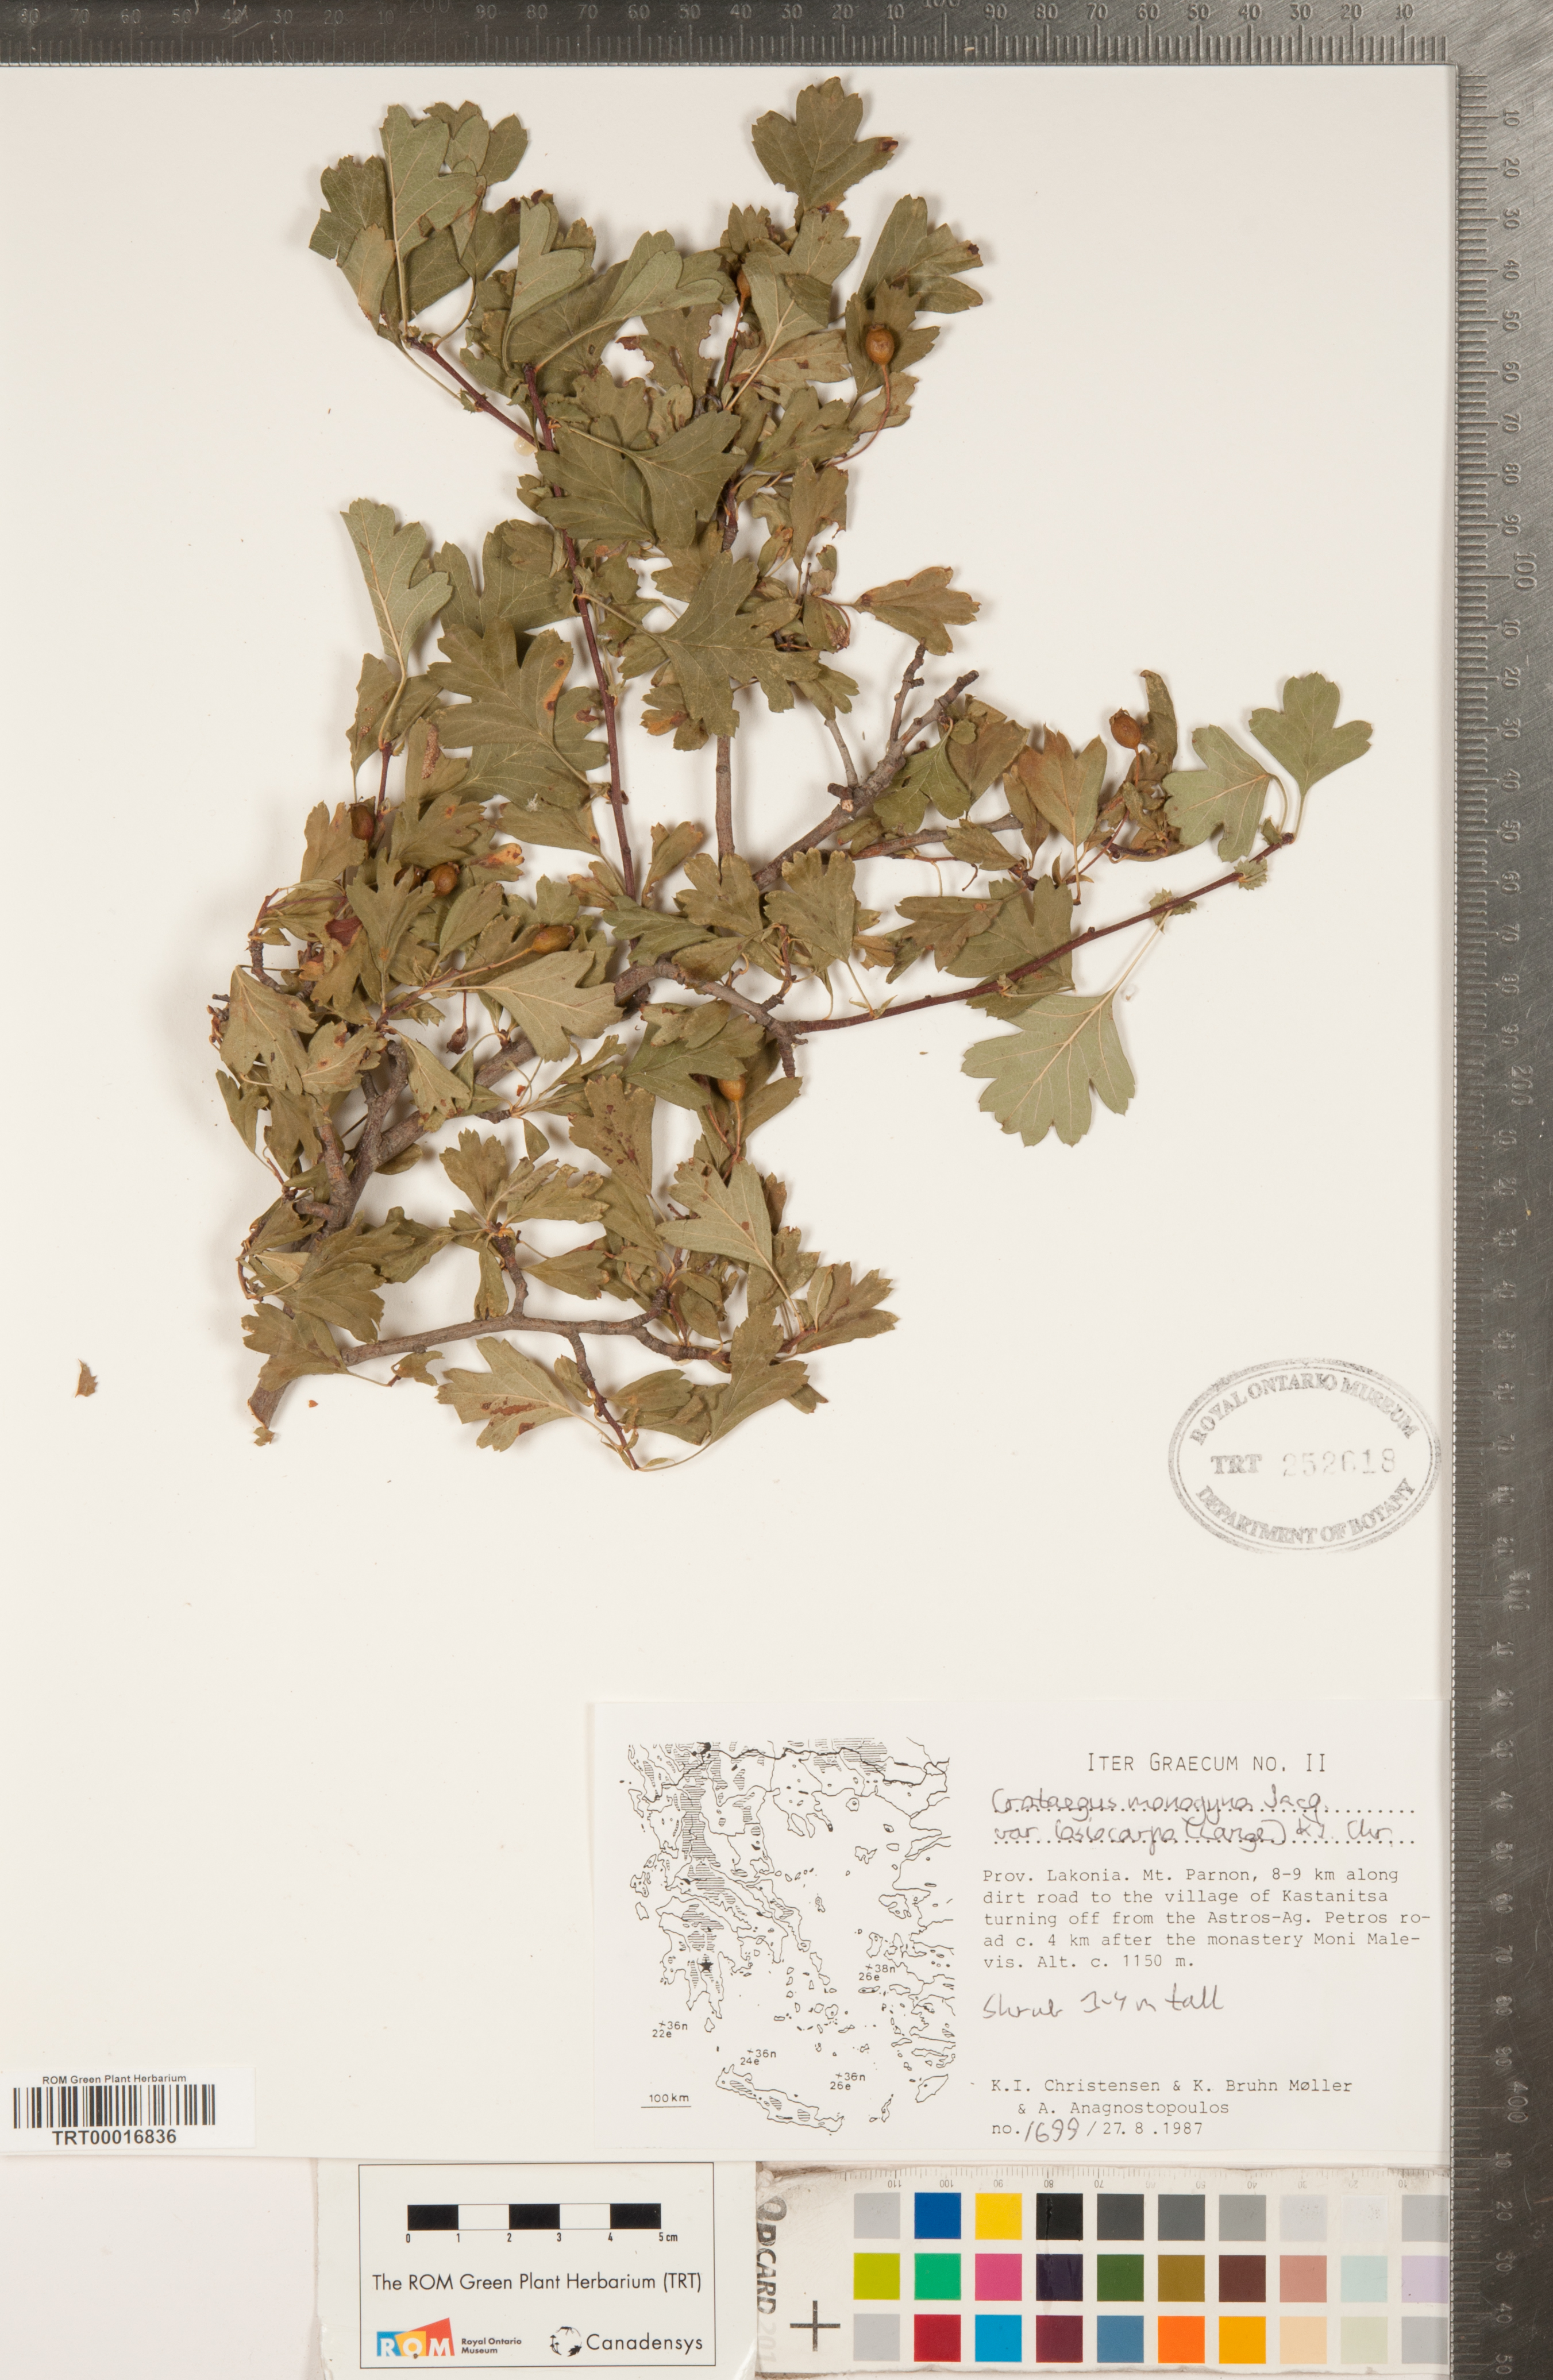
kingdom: Plantae
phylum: Tracheophyta
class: Magnoliopsida
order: Rosales
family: Rosaceae
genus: Crataegus
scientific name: Crataegus laciniata
